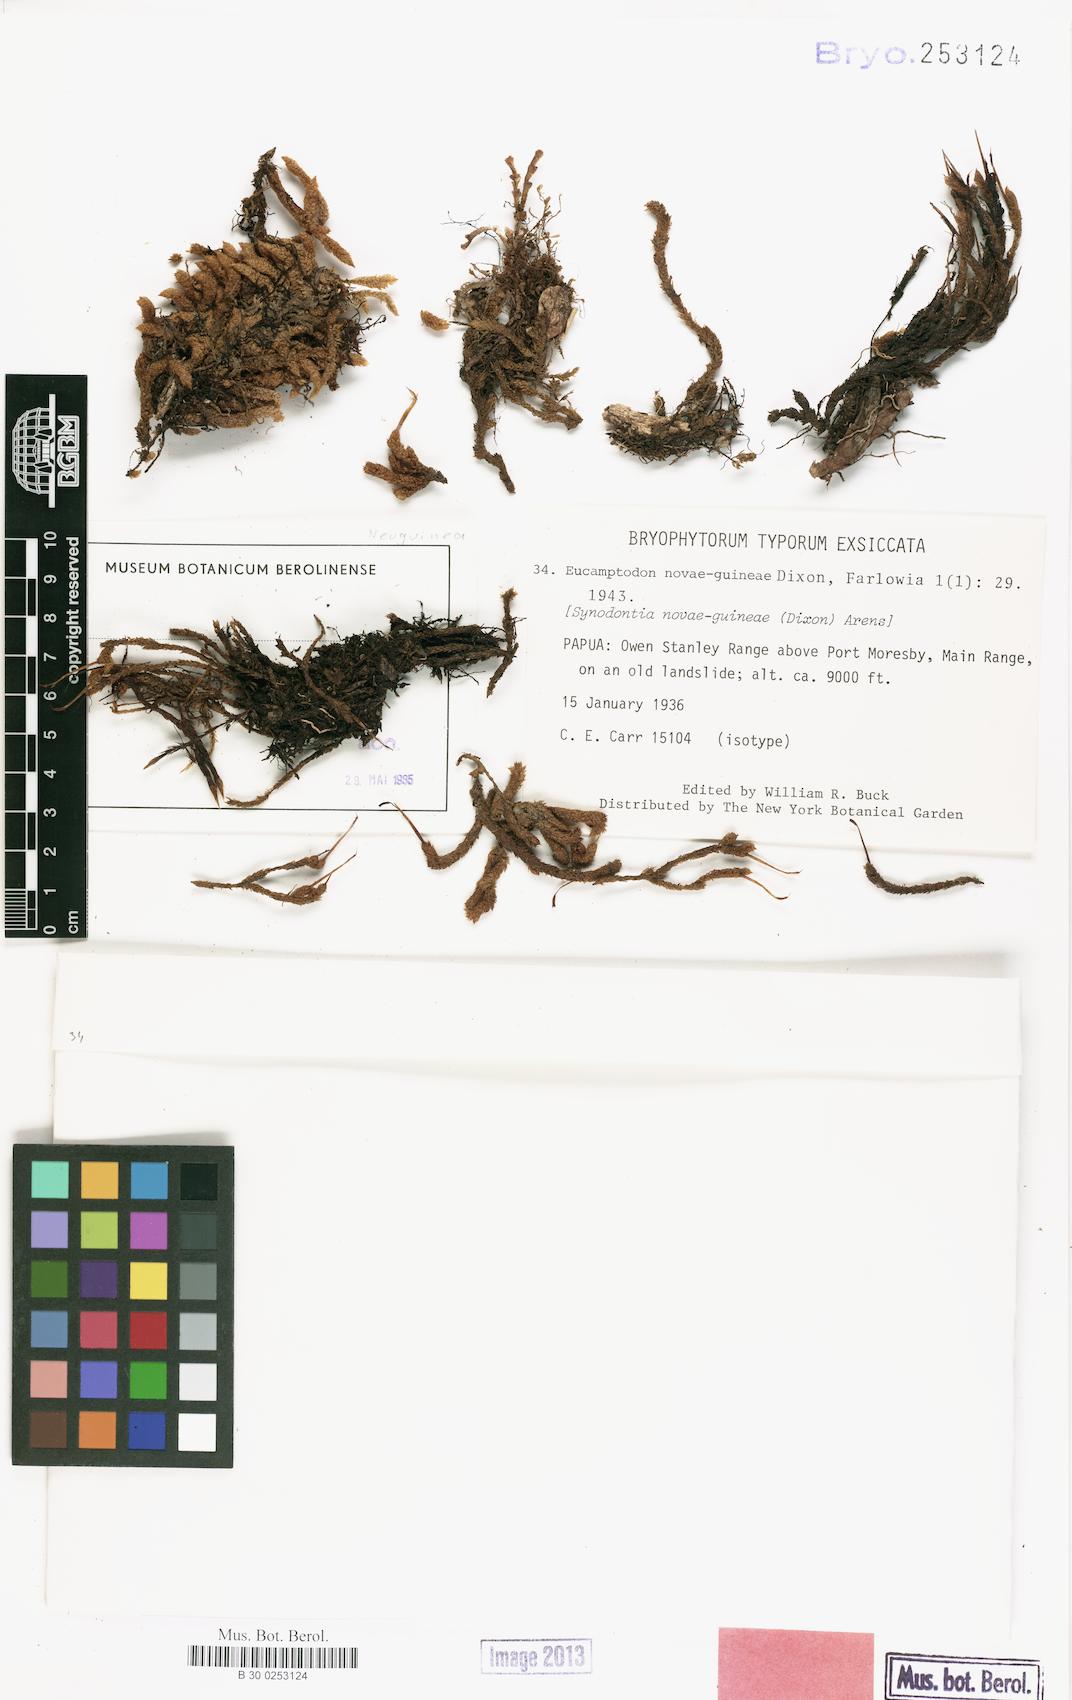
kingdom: Plantae
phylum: Bryophyta
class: Bryopsida
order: Dicranales
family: Dicranaceae
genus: Dicnemon
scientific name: Dicnemon novae-guineae
